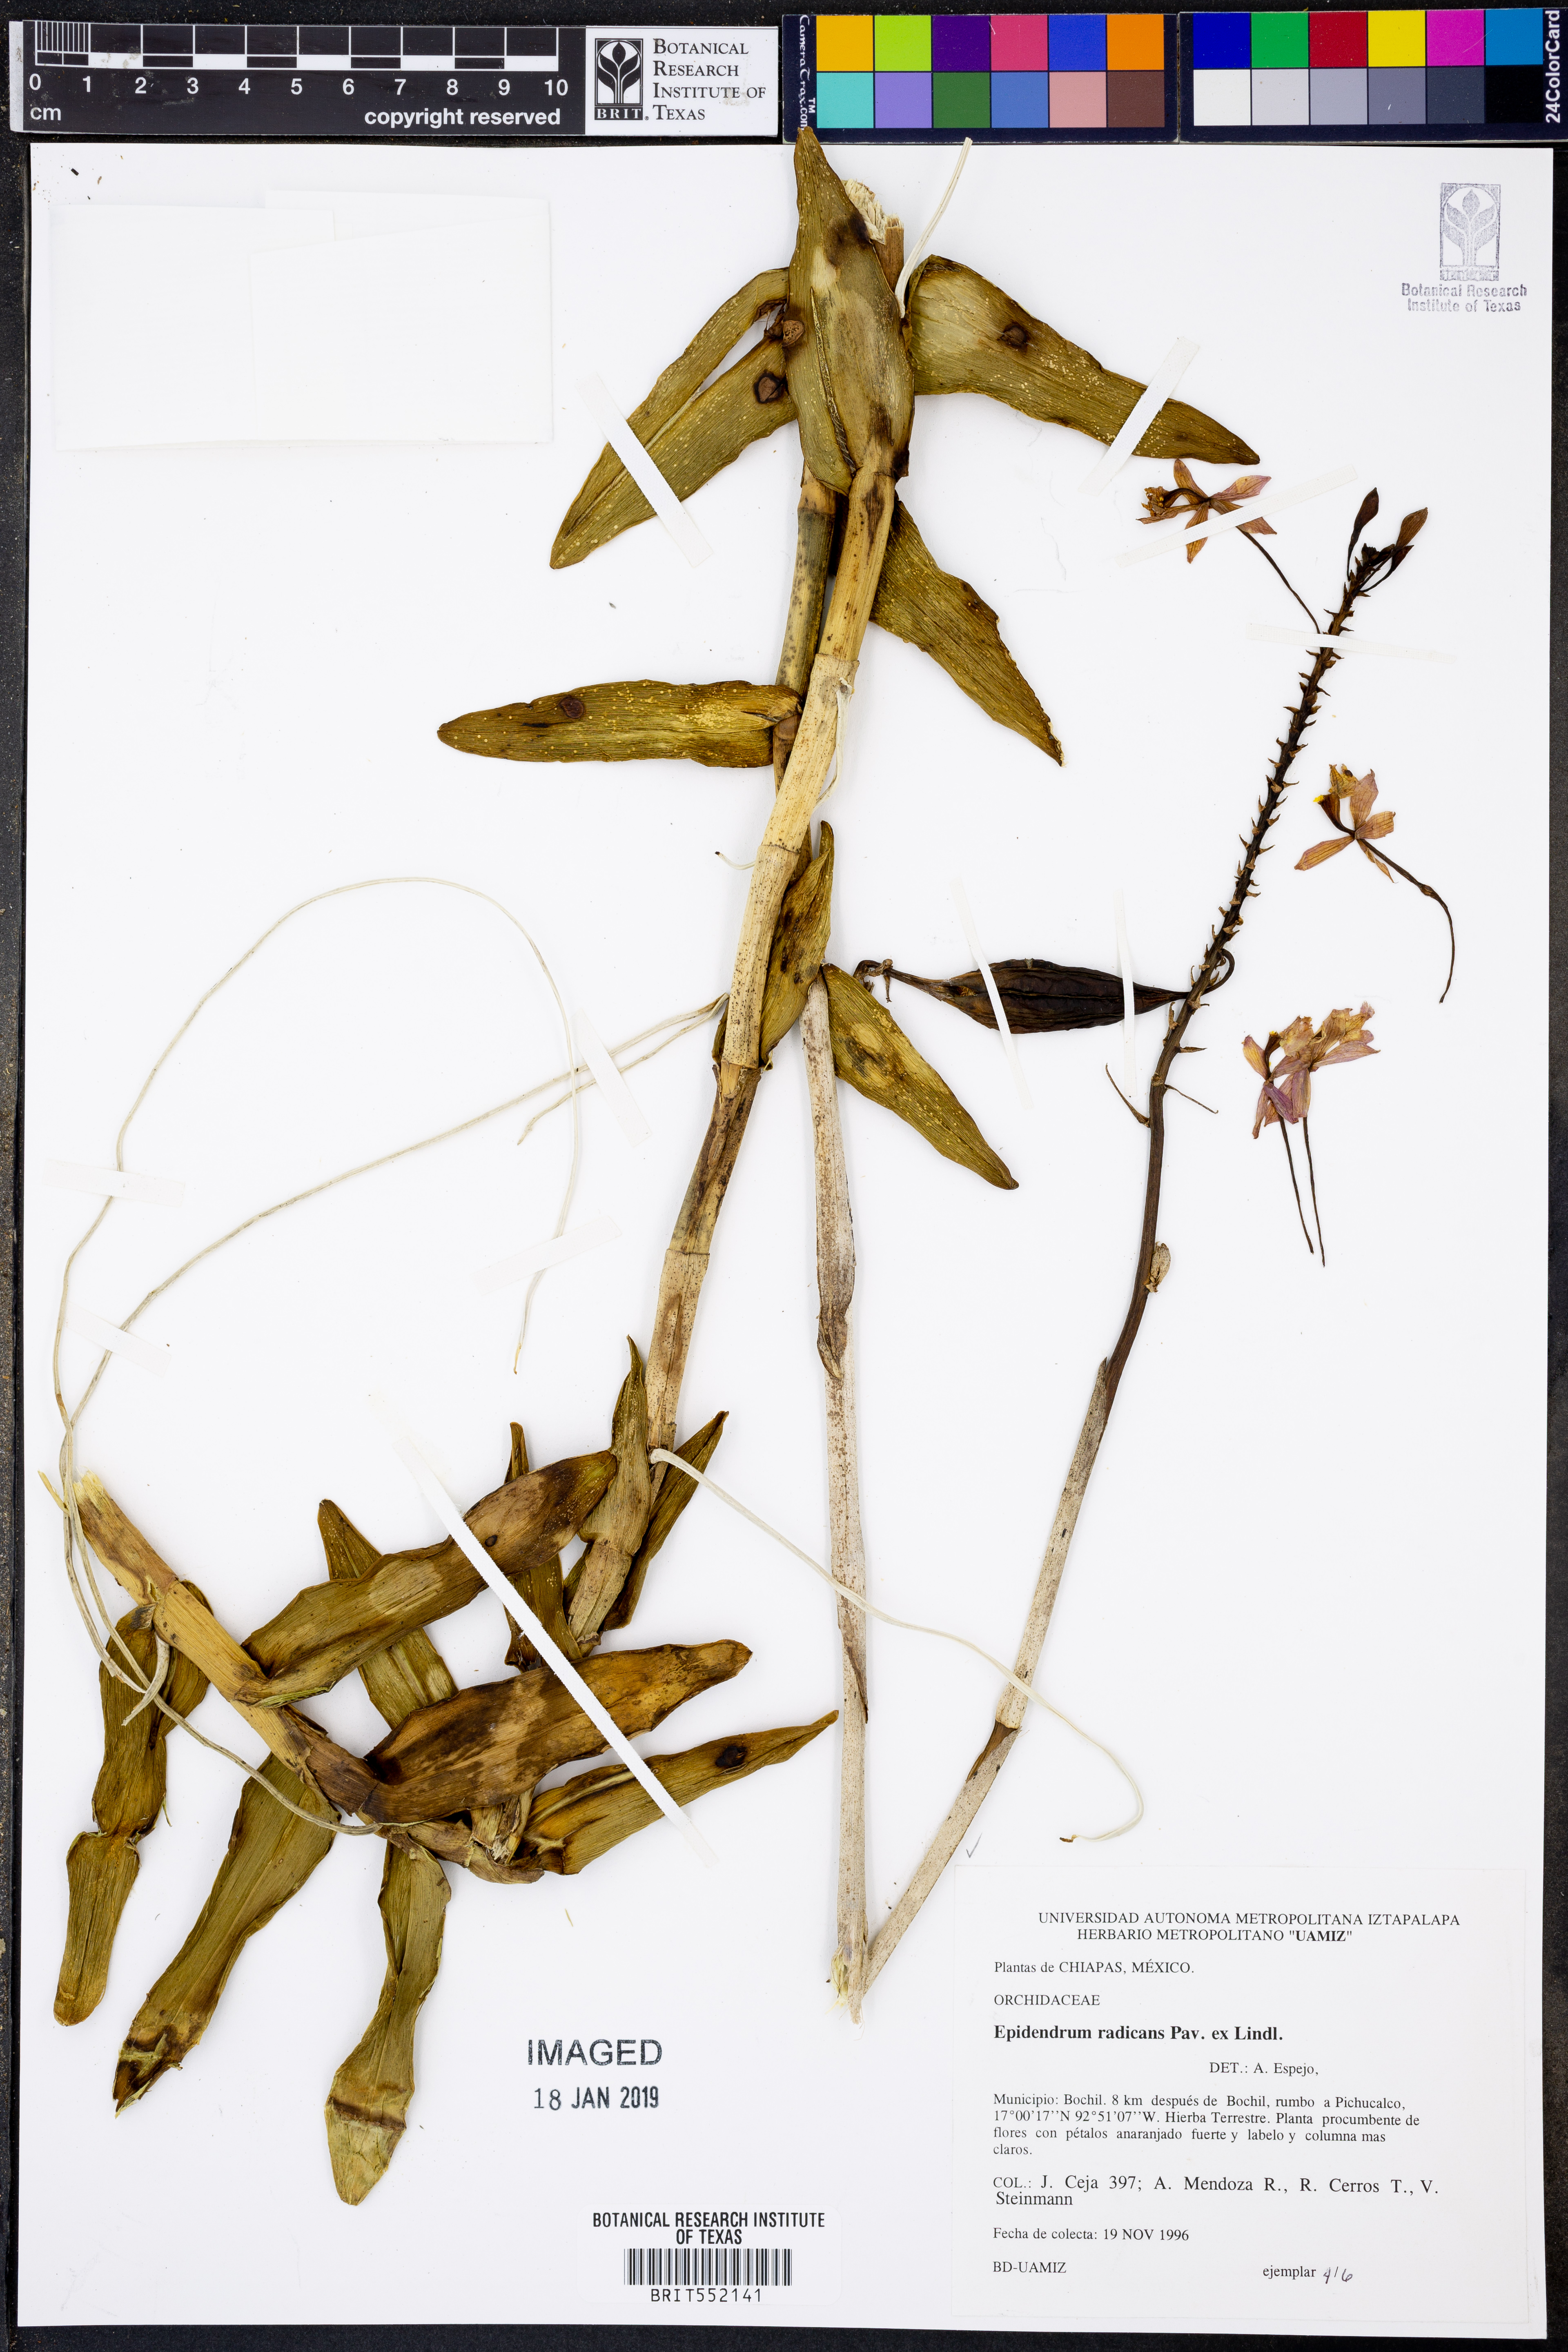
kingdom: Plantae
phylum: Tracheophyta
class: Liliopsida
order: Asparagales
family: Orchidaceae
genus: Epidendrum
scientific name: Epidendrum radicans
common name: Fire star orchid
